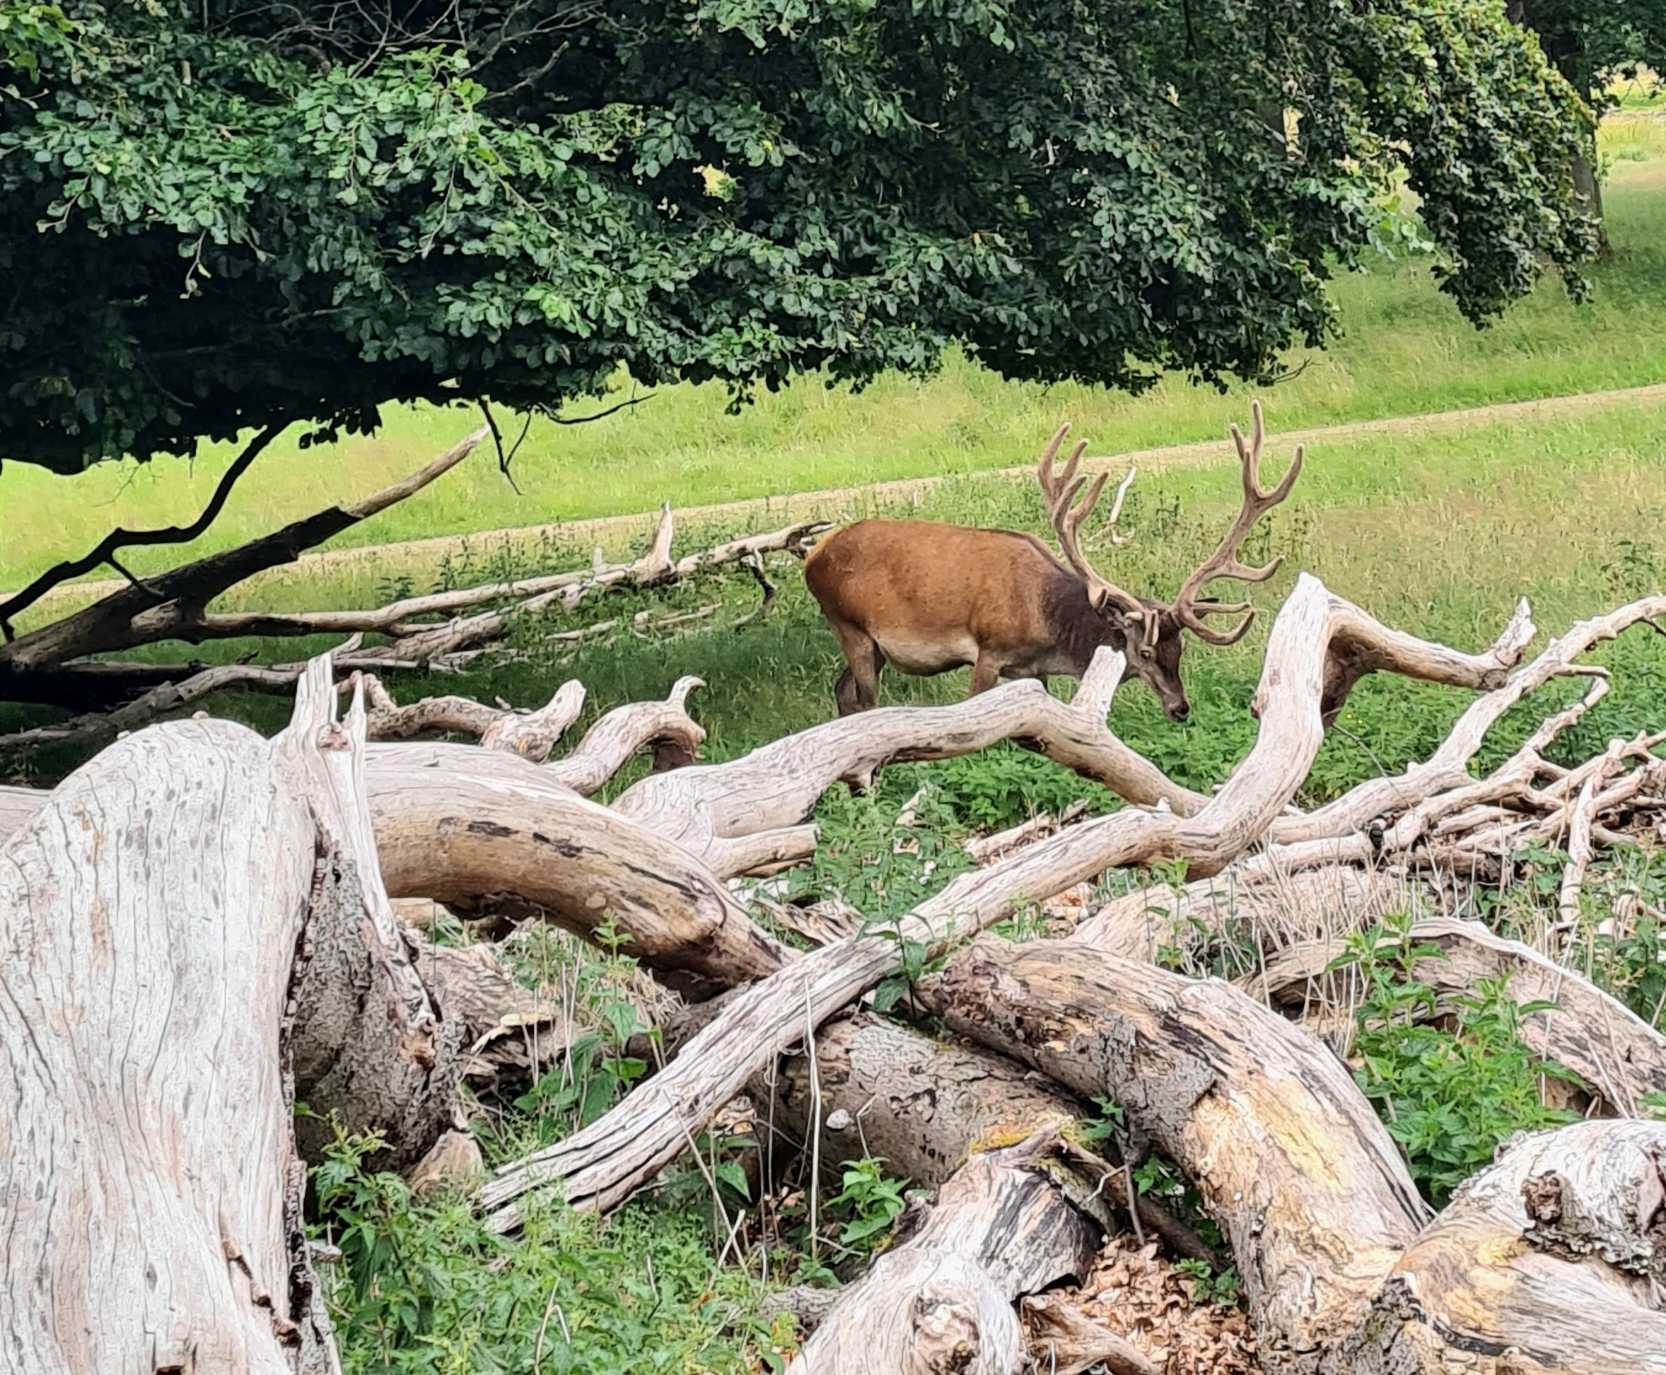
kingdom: Animalia
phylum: Chordata
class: Mammalia
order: Artiodactyla
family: Cervidae
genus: Cervus
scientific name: Cervus elaphus
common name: Krondyr
